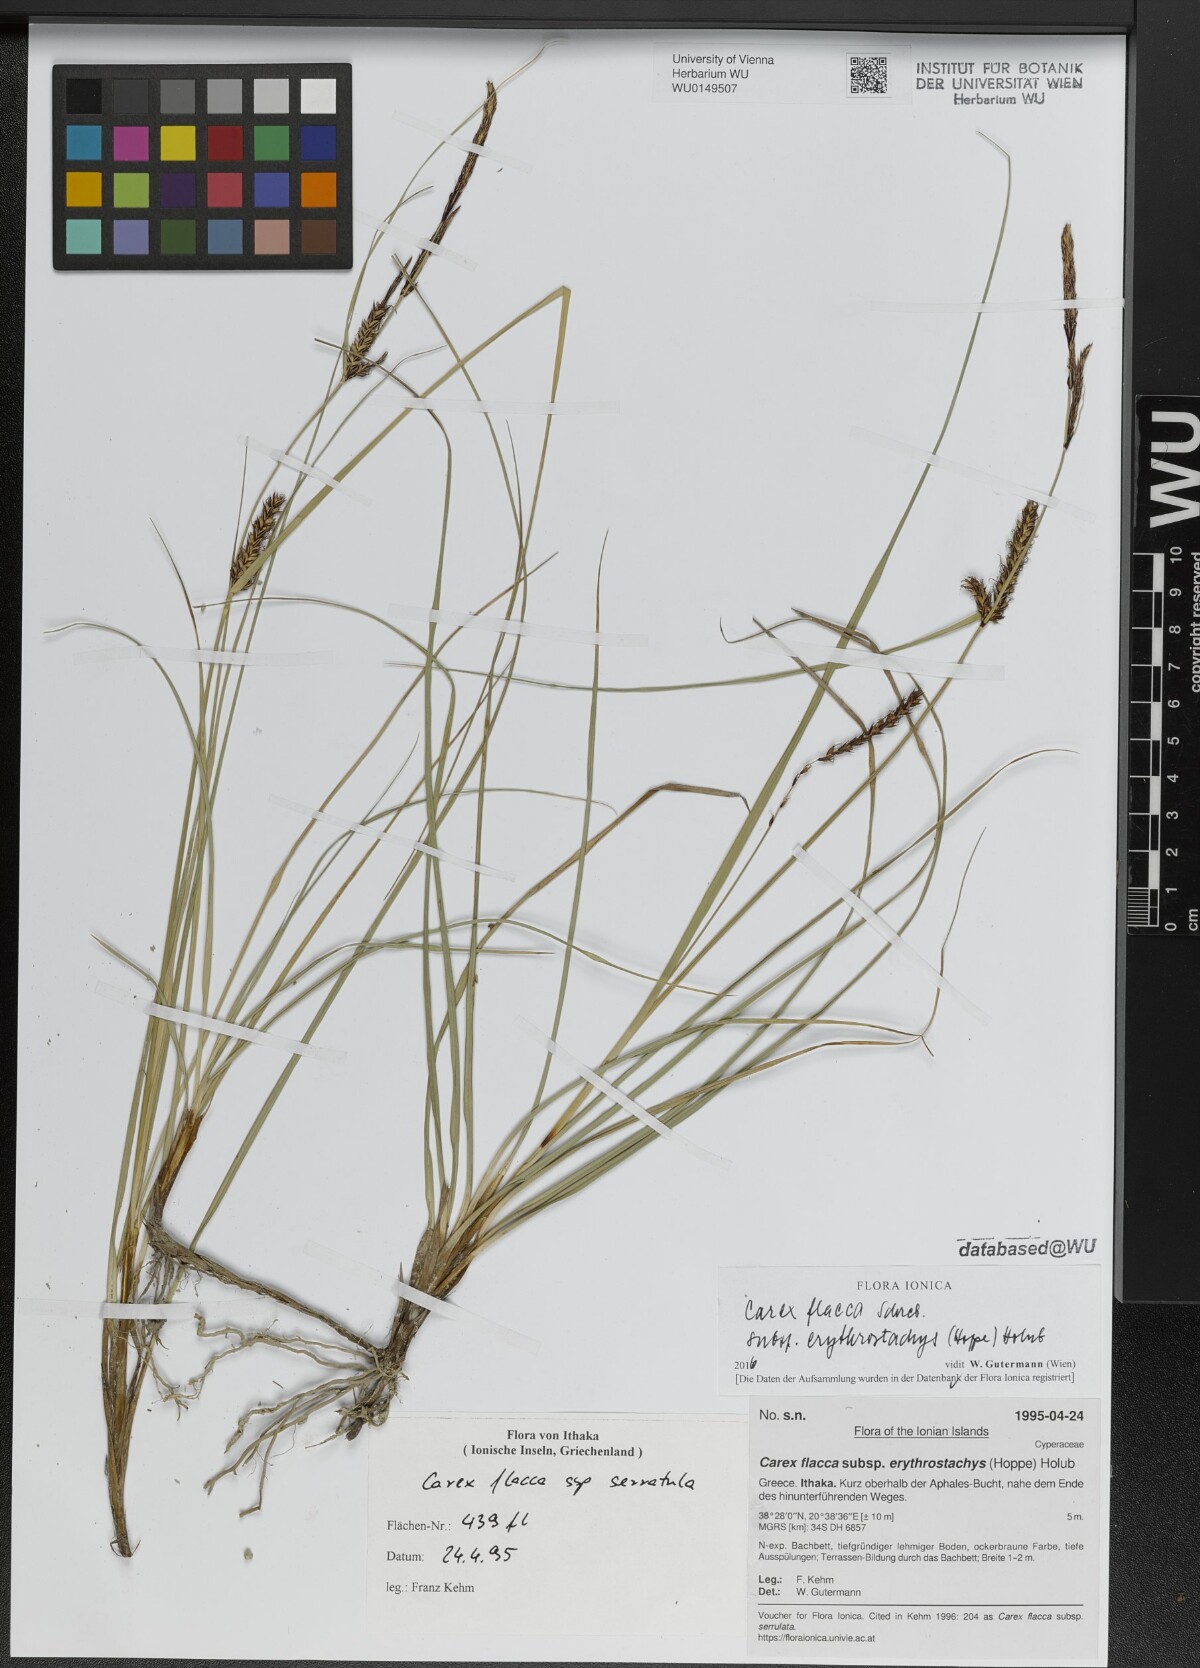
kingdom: Plantae
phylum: Tracheophyta
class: Liliopsida
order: Poales
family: Cyperaceae
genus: Carex
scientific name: Carex flacca
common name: Glaucous sedge
